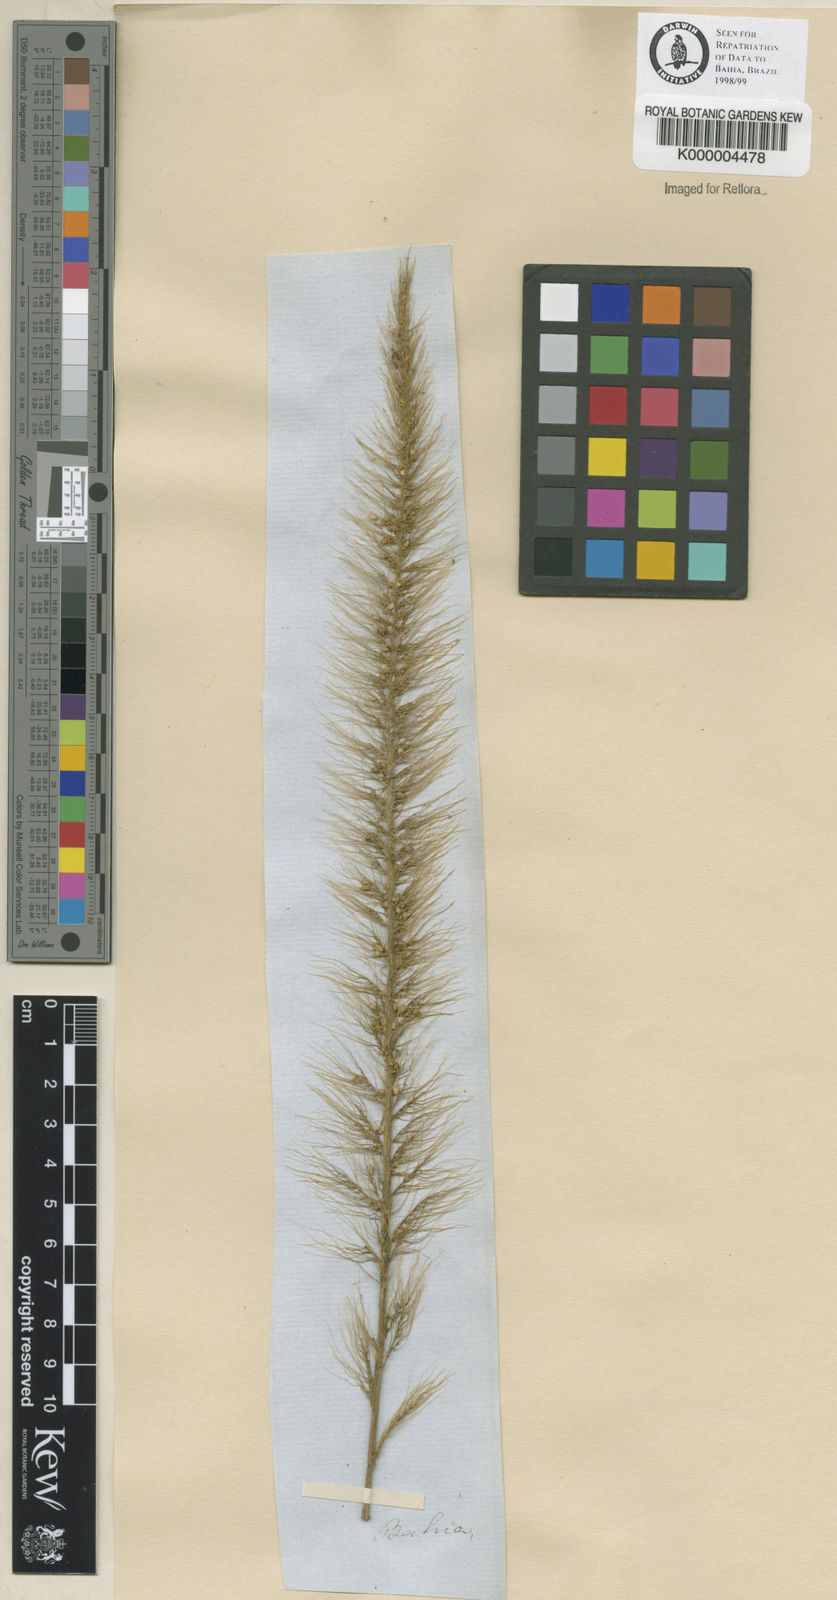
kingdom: Plantae
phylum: Tracheophyta
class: Liliopsida
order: Poales
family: Poaceae
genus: Setaria
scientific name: Setaria vulpiseta
